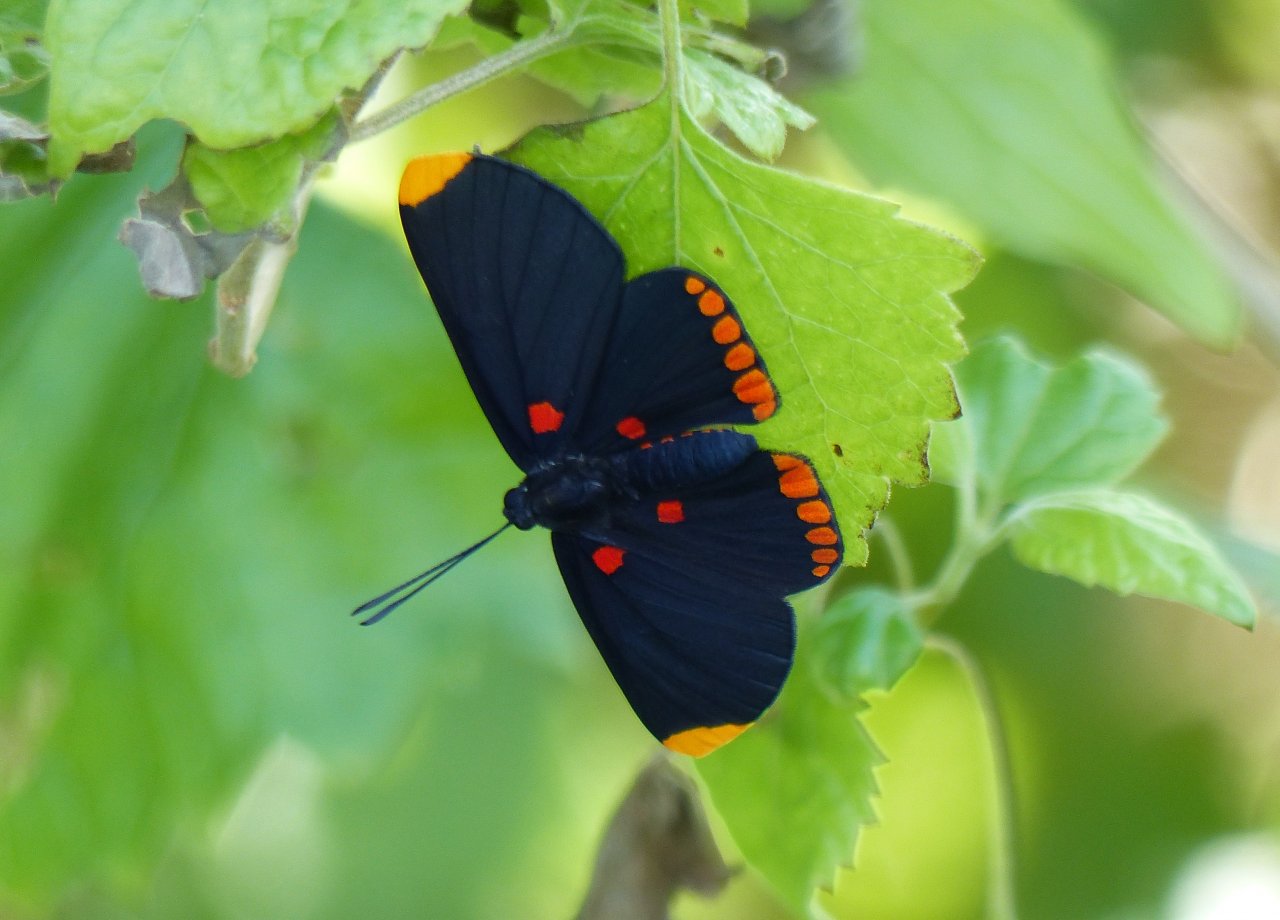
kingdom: Animalia
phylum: Arthropoda
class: Insecta
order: Lepidoptera
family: Lycaenidae
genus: Melanis
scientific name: Melanis pixe
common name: Red-bordered Pixie
